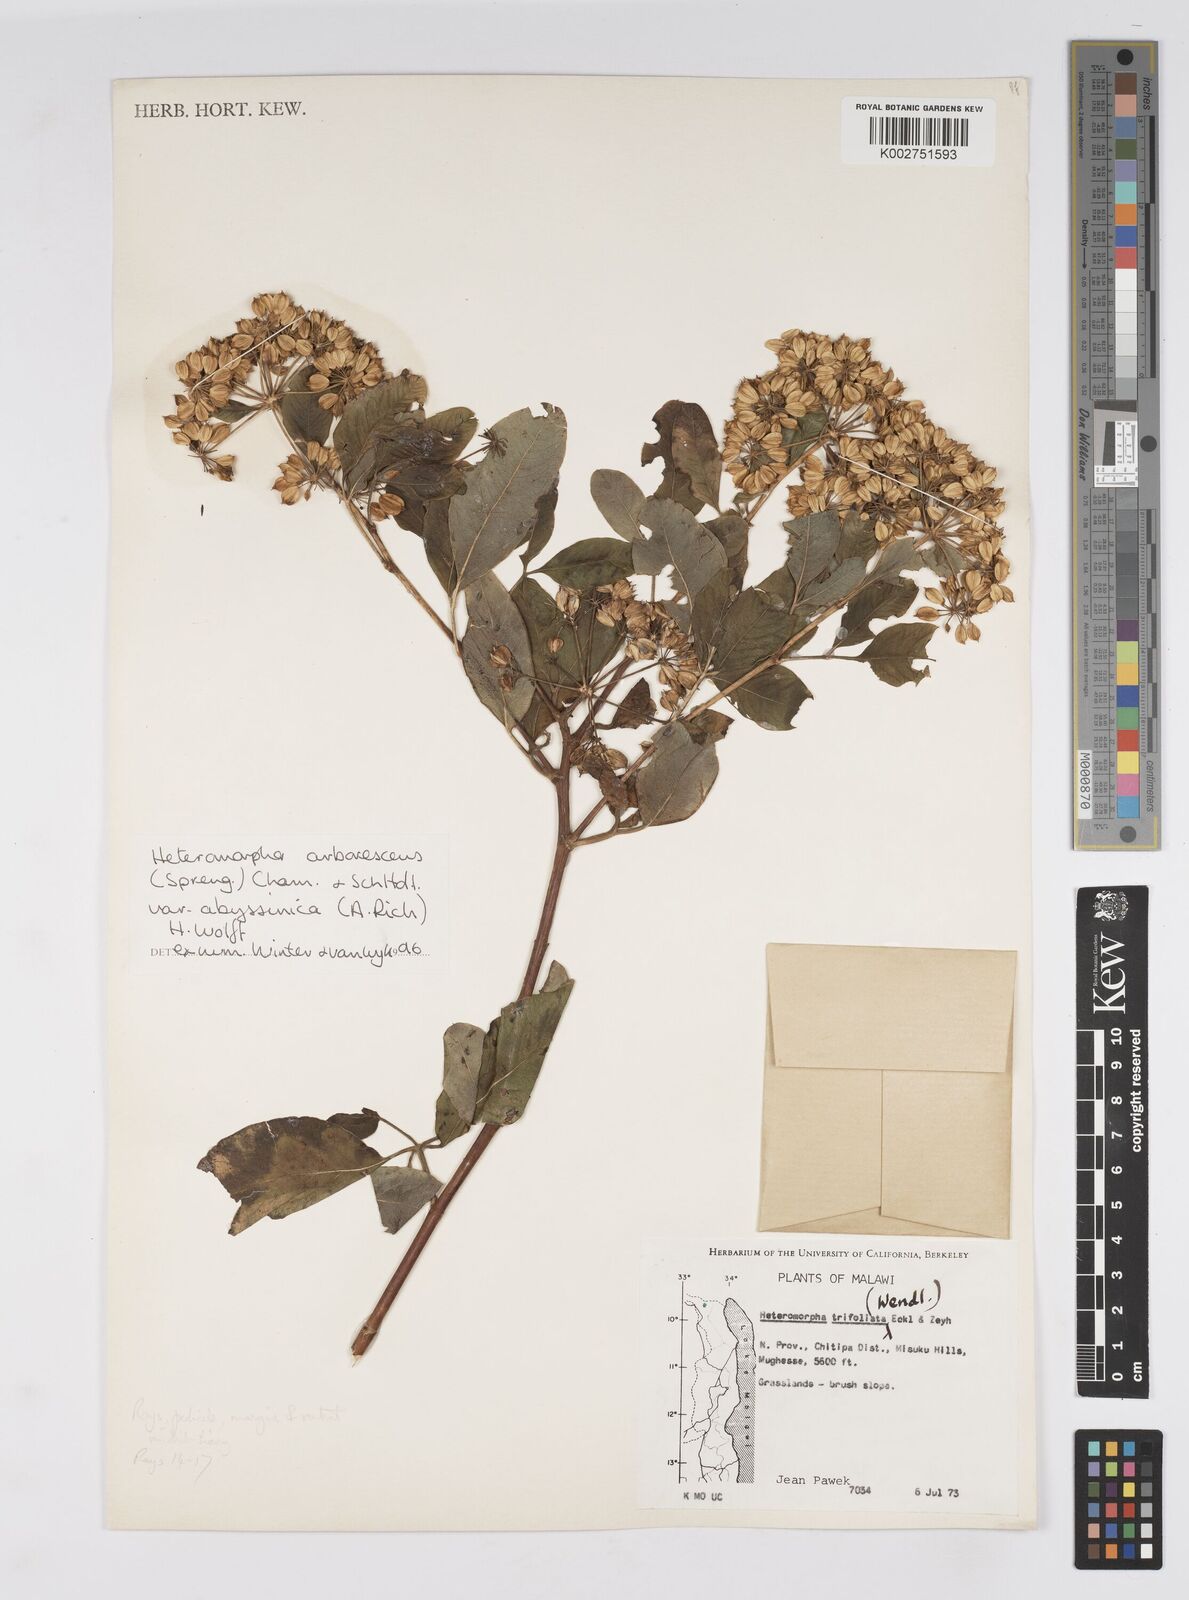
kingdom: Plantae
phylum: Tracheophyta
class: Magnoliopsida
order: Apiales
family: Apiaceae
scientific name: Apiaceae
